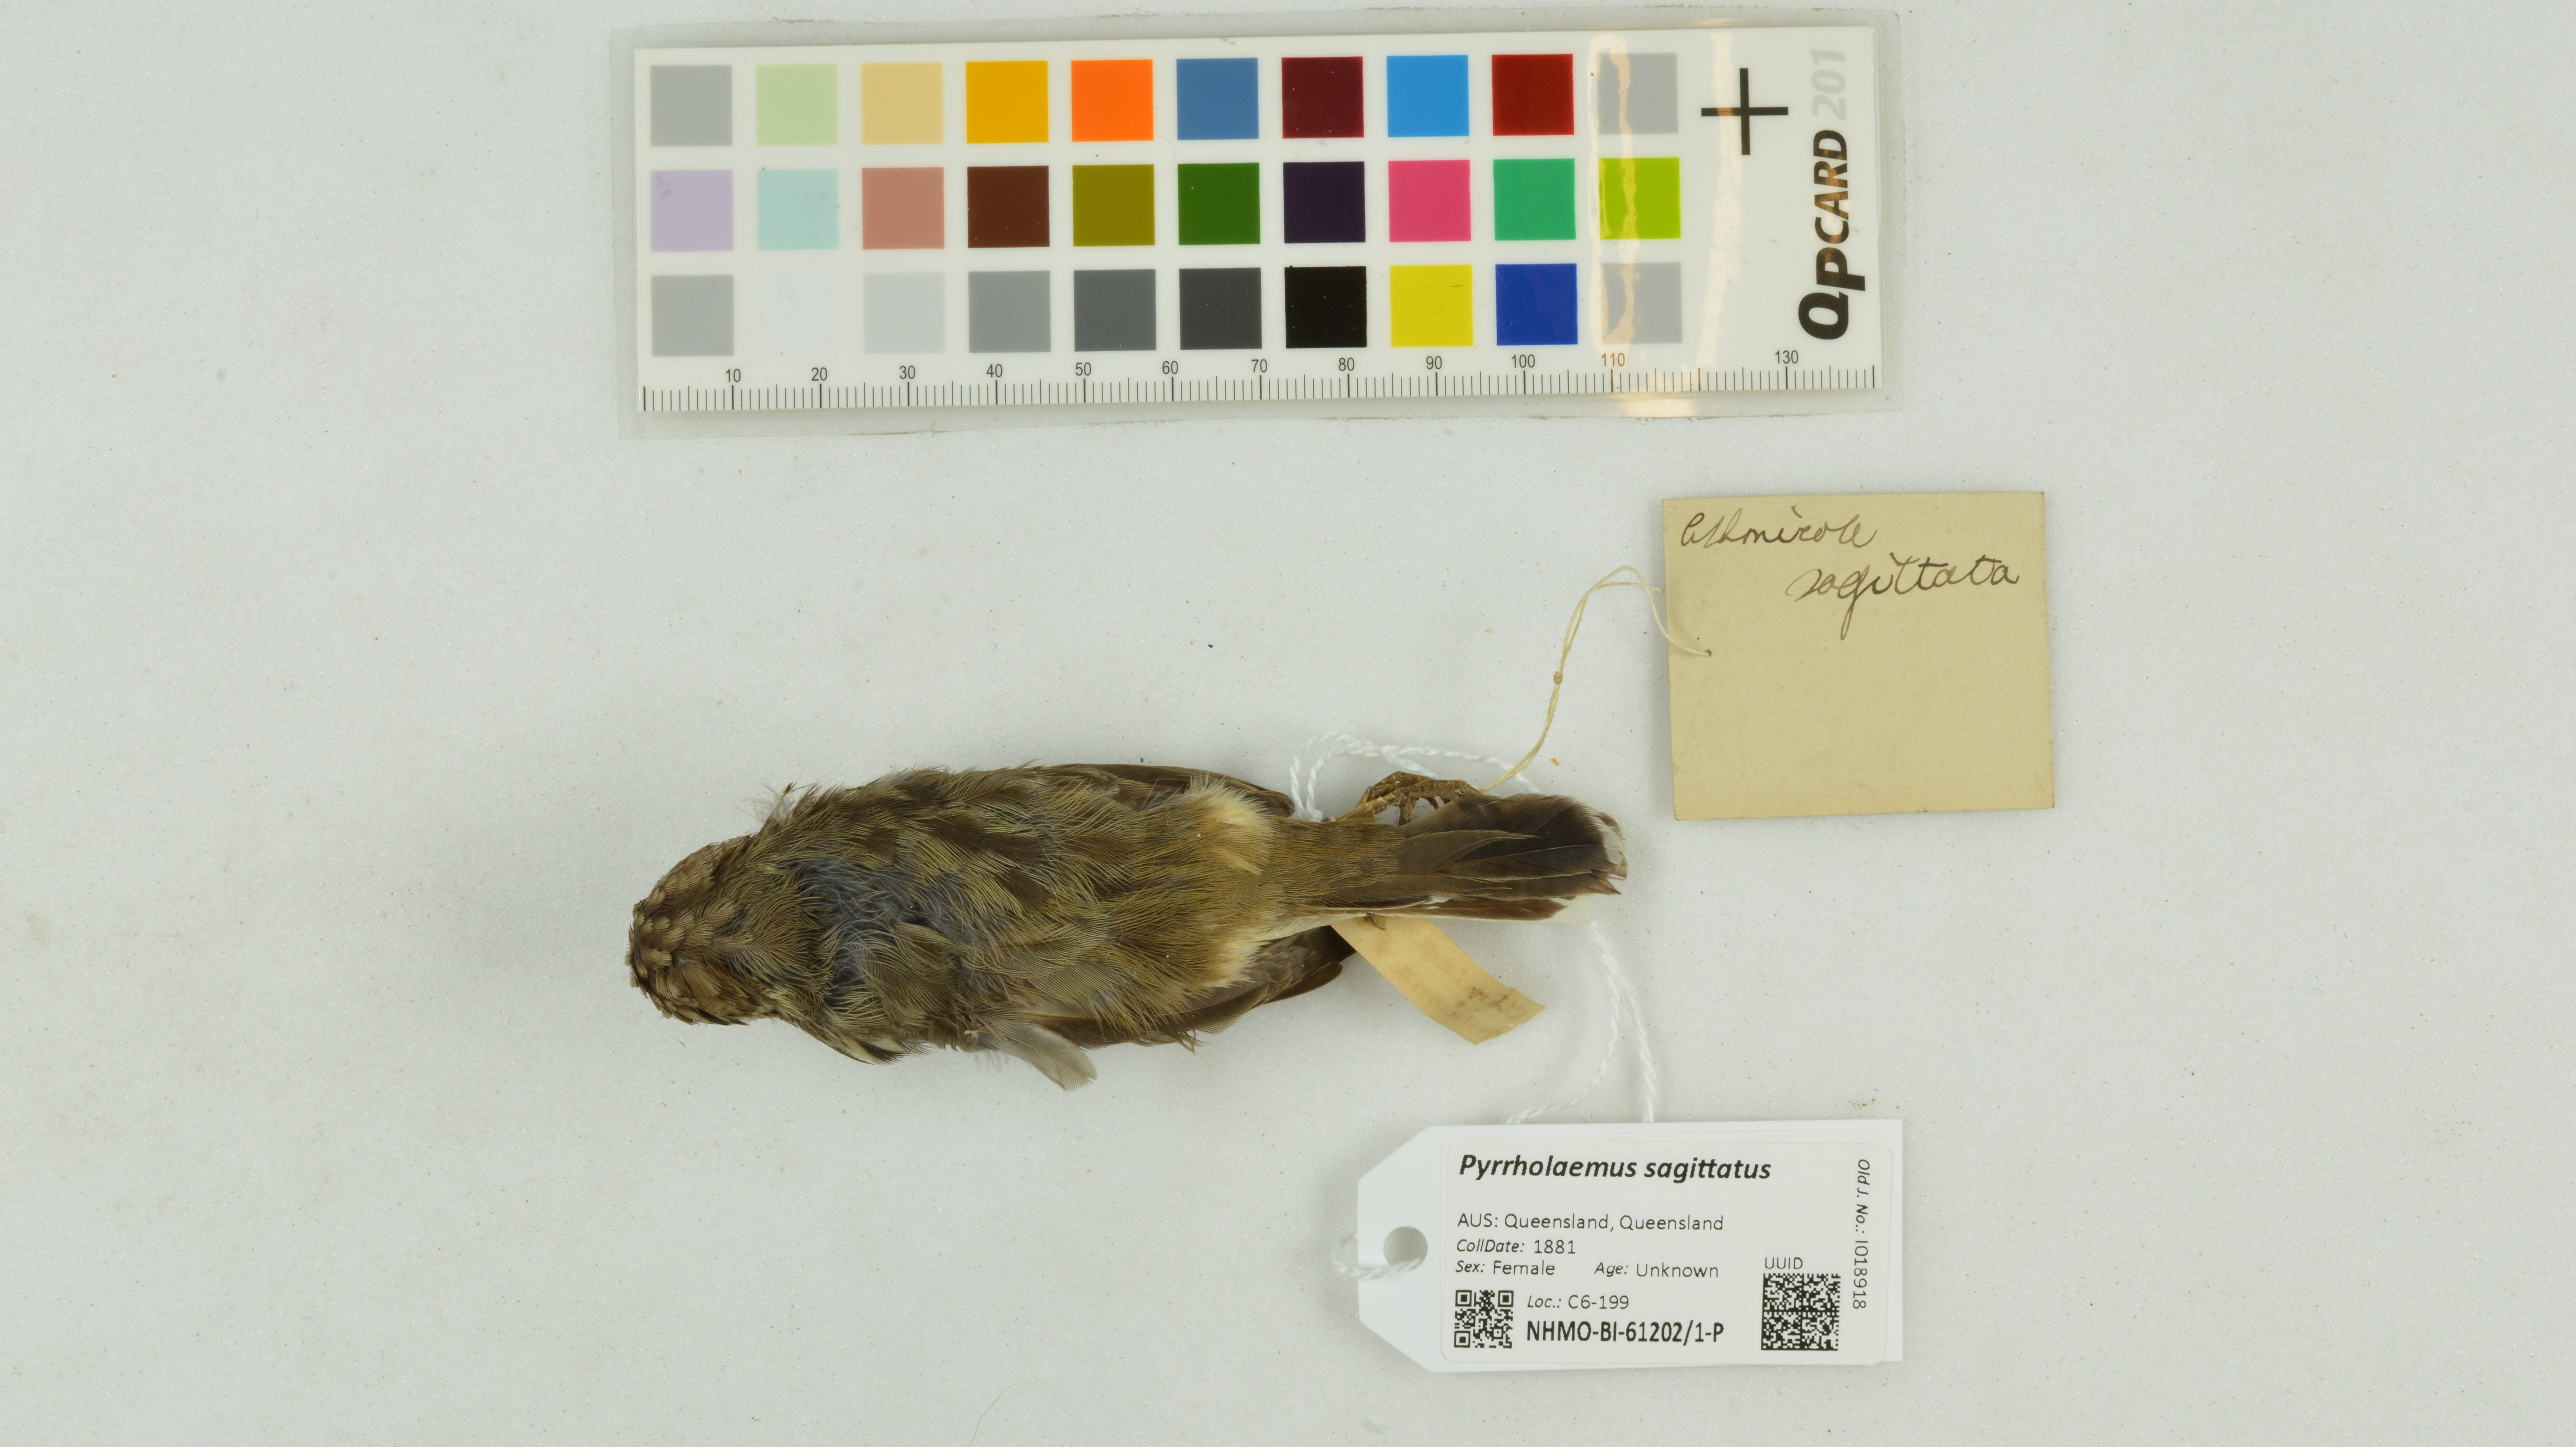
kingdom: Animalia
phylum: Chordata
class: Aves
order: Passeriformes
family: Acanthizidae
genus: Pyrrholaemus
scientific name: Pyrrholaemus sagittatus
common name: Speckled warbler
